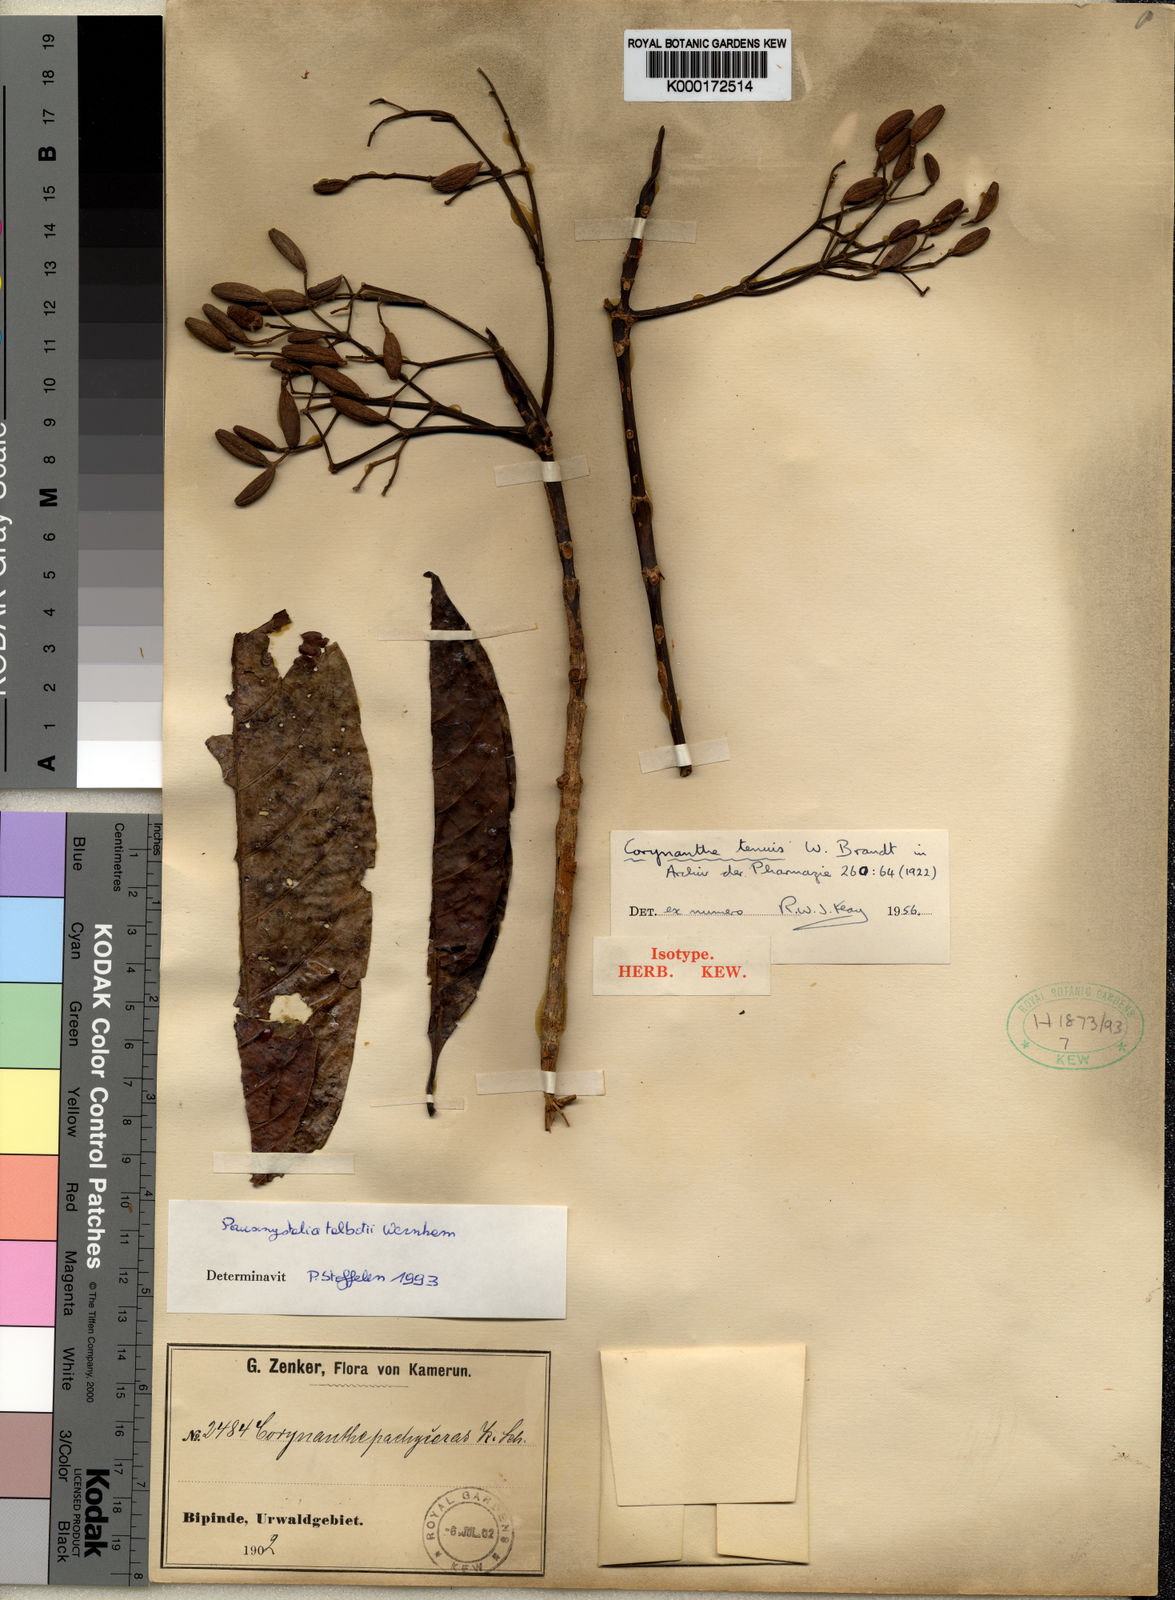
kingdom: Plantae
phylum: Tracheophyta
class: Magnoliopsida
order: Gentianales
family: Rubiaceae
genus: Corynanthe
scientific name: Corynanthe talbotii
